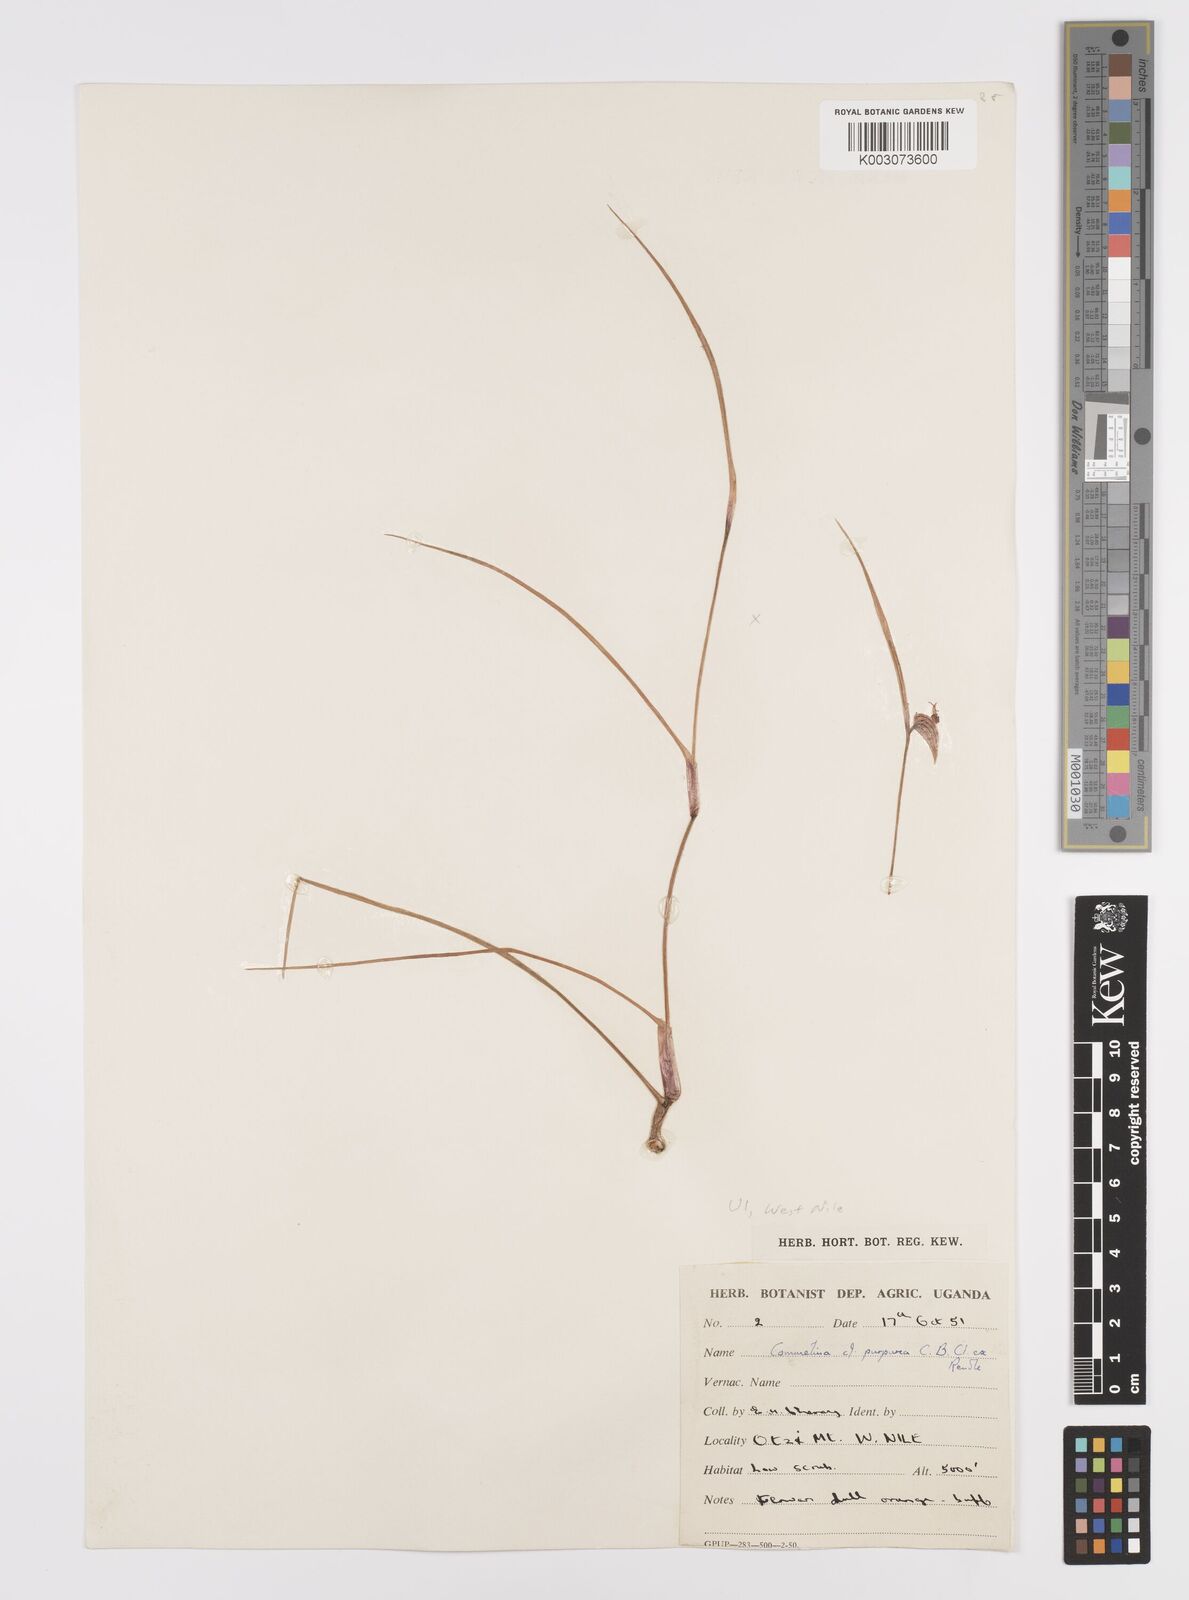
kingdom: Plantae
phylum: Tracheophyta
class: Liliopsida
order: Commelinales
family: Commelinaceae
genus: Commelina
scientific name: Commelina purpurea
